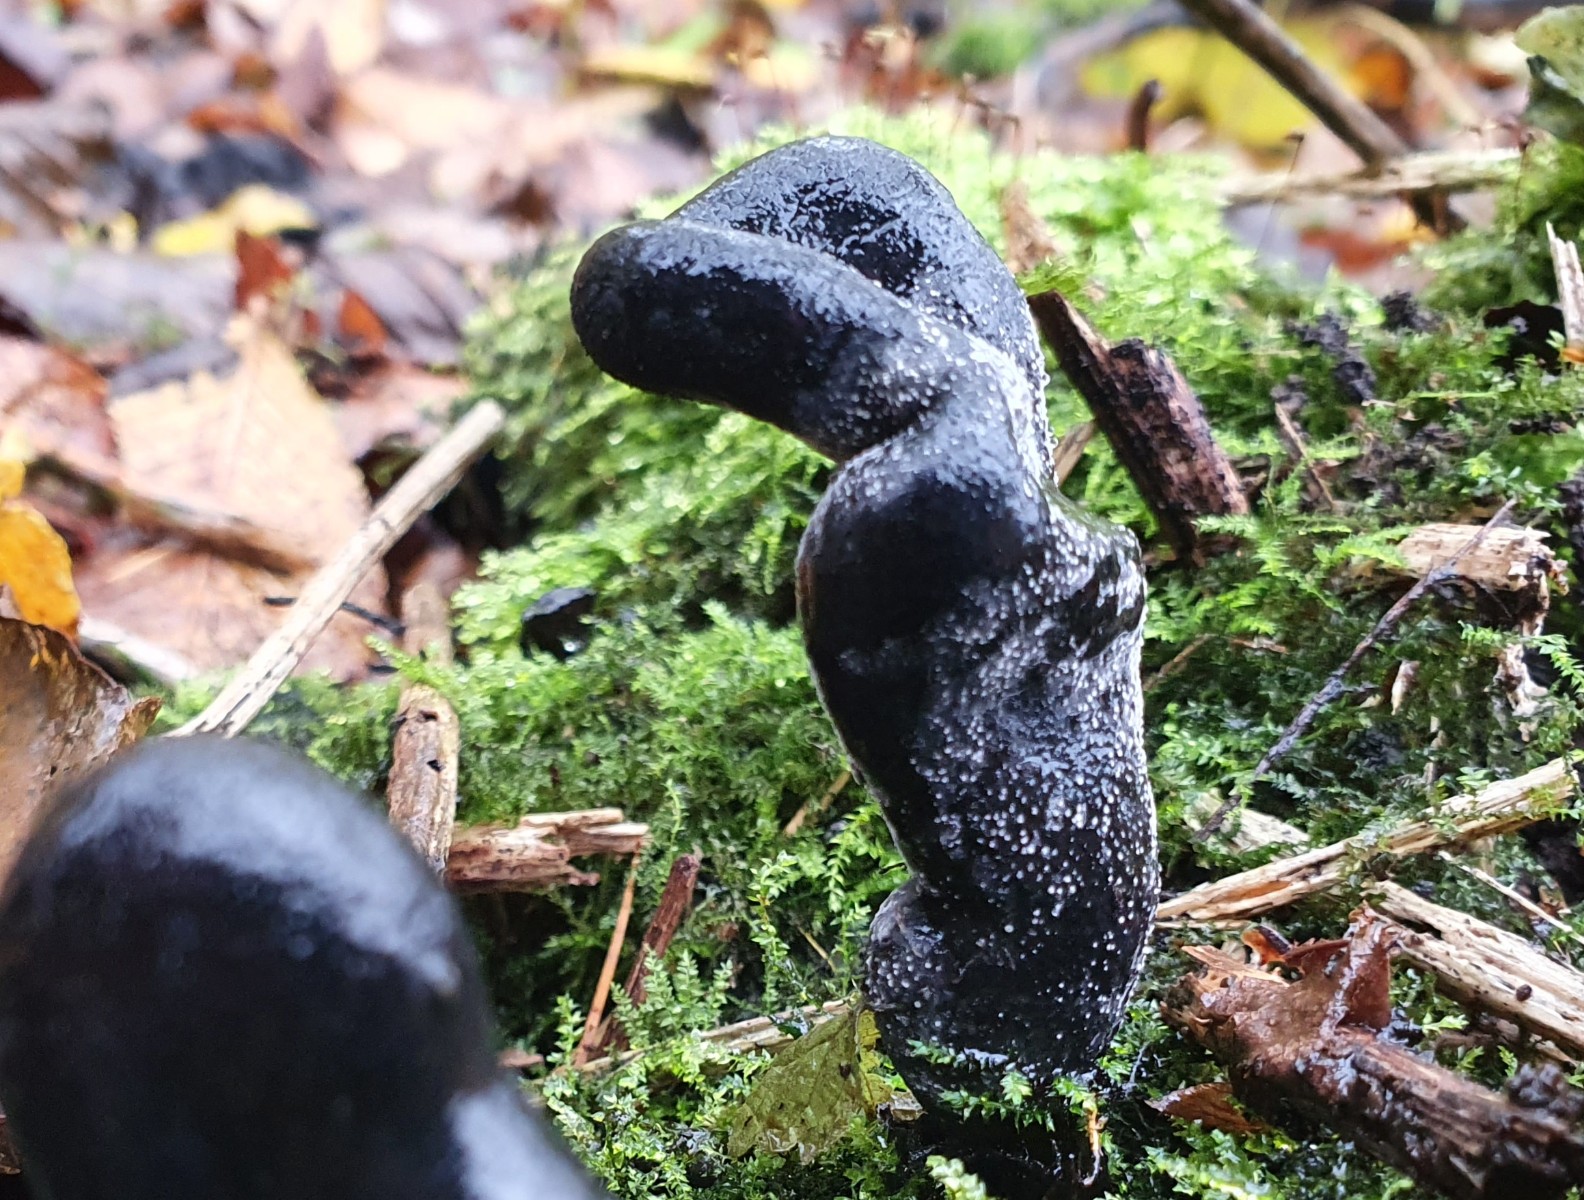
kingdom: Fungi
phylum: Ascomycota
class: Sordariomycetes
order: Xylariales
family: Xylariaceae
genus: Xylaria
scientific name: Xylaria polymorpha
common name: kølle-stødsvamp
